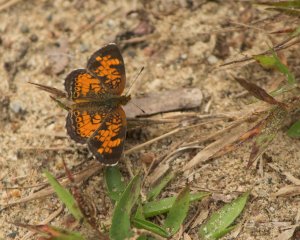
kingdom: Animalia
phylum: Arthropoda
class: Insecta
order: Lepidoptera
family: Nymphalidae
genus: Phyciodes
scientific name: Phyciodes tharos
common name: Northern Crescent
